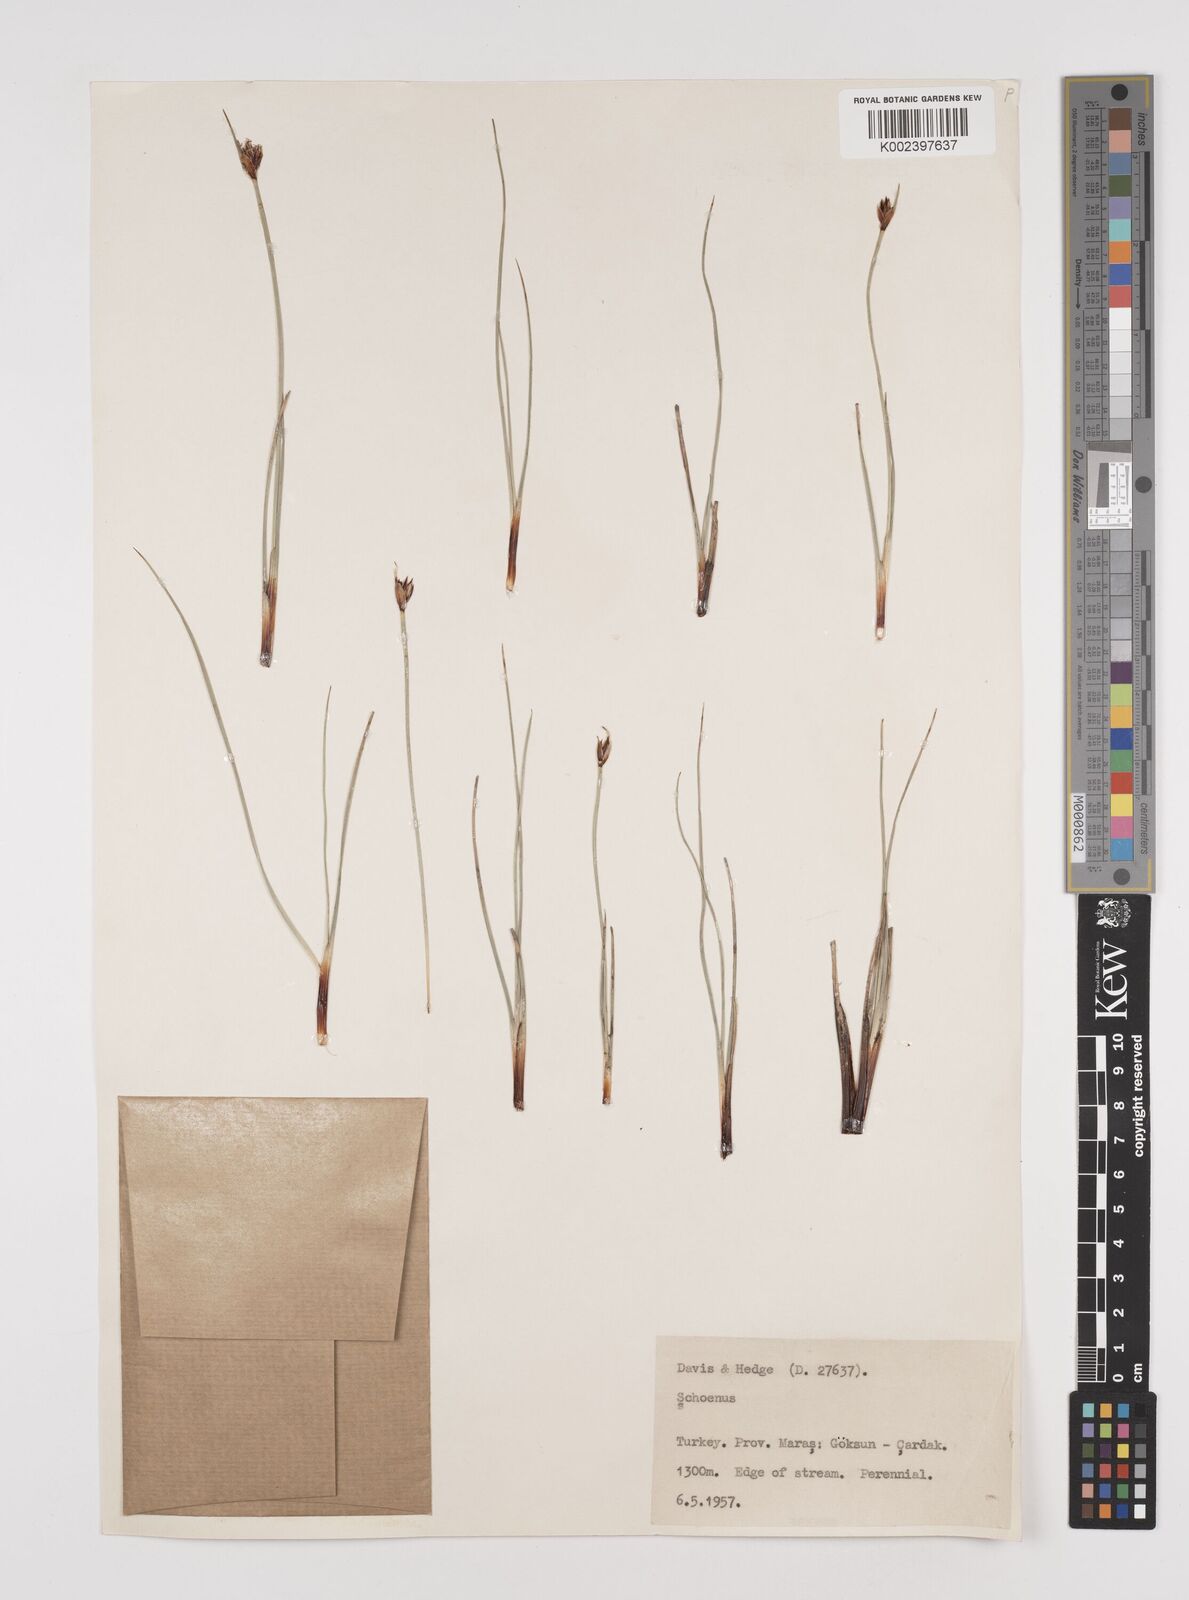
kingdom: Plantae
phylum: Tracheophyta
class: Liliopsida
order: Poales
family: Cyperaceae
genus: Schoenus
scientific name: Schoenus nigricans
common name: Black bog-rush
